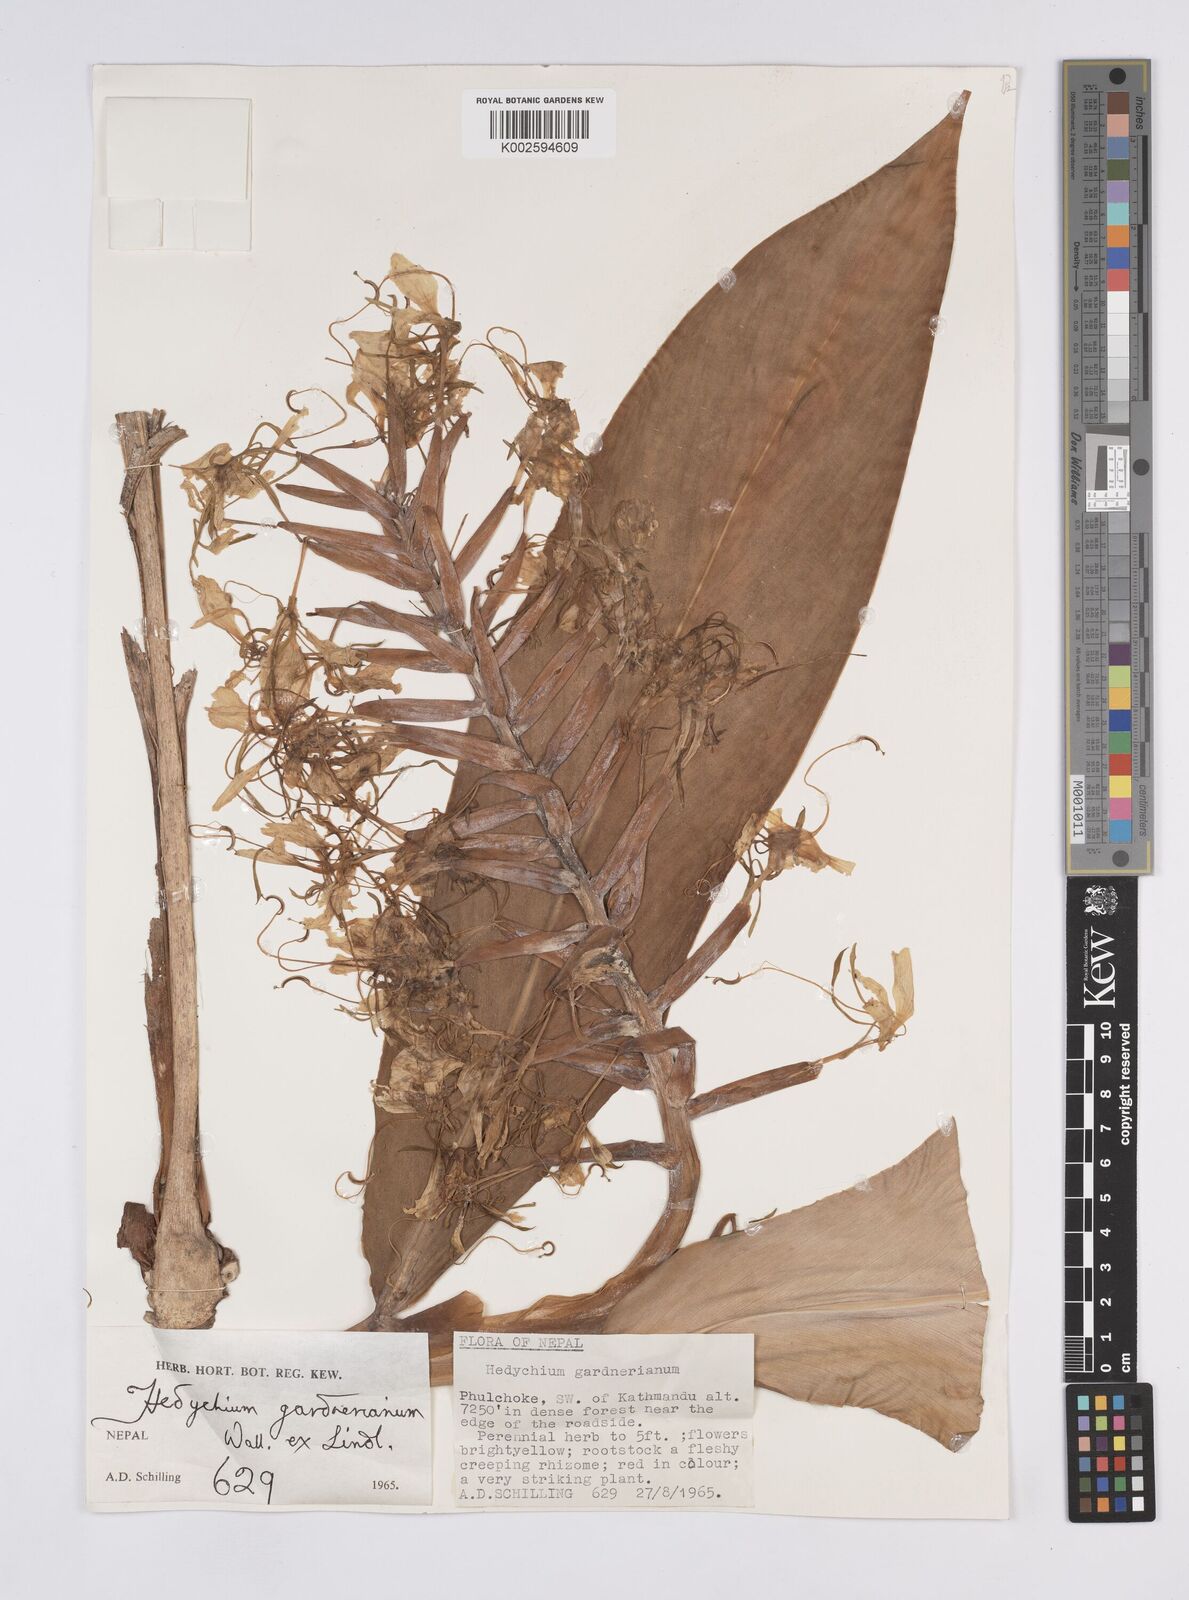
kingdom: Plantae
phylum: Tracheophyta
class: Liliopsida
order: Zingiberales
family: Zingiberaceae
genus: Hedychium
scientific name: Hedychium gardnerianum
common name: Himalayan ginger
